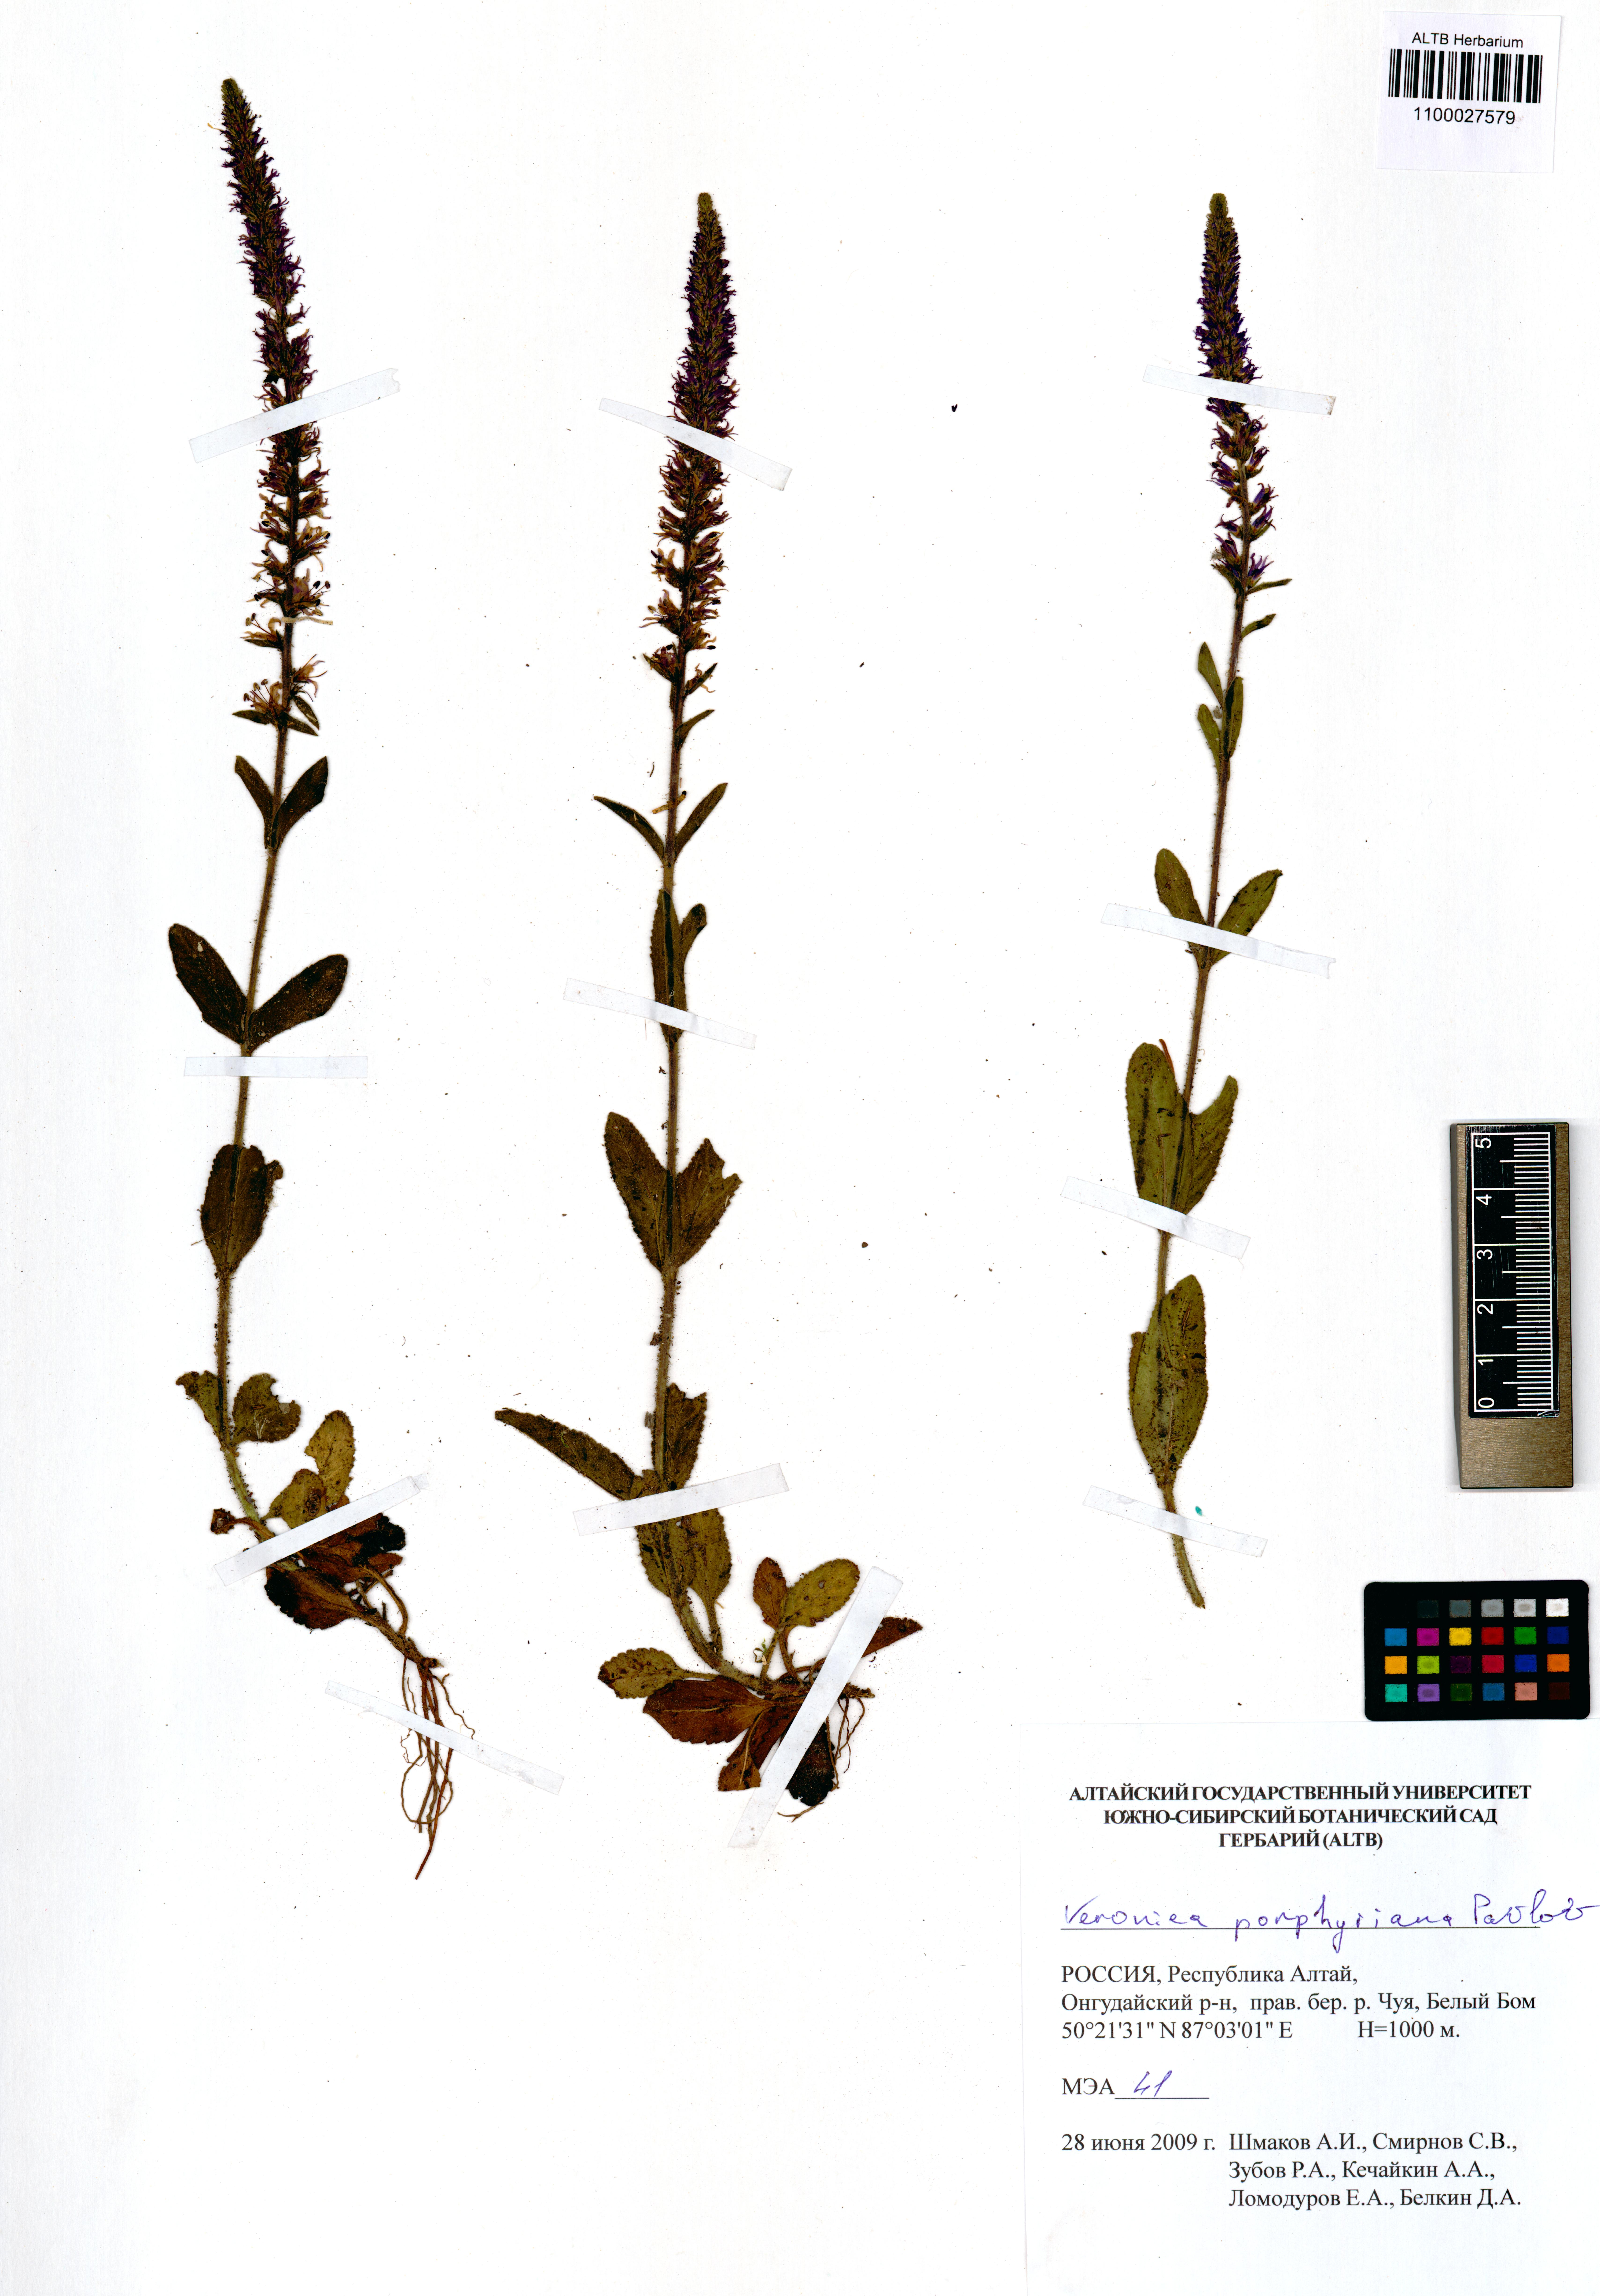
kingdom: Plantae
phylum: Tracheophyta
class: Magnoliopsida
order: Lamiales
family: Plantaginaceae
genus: Veronica
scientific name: Veronica porphyriana
